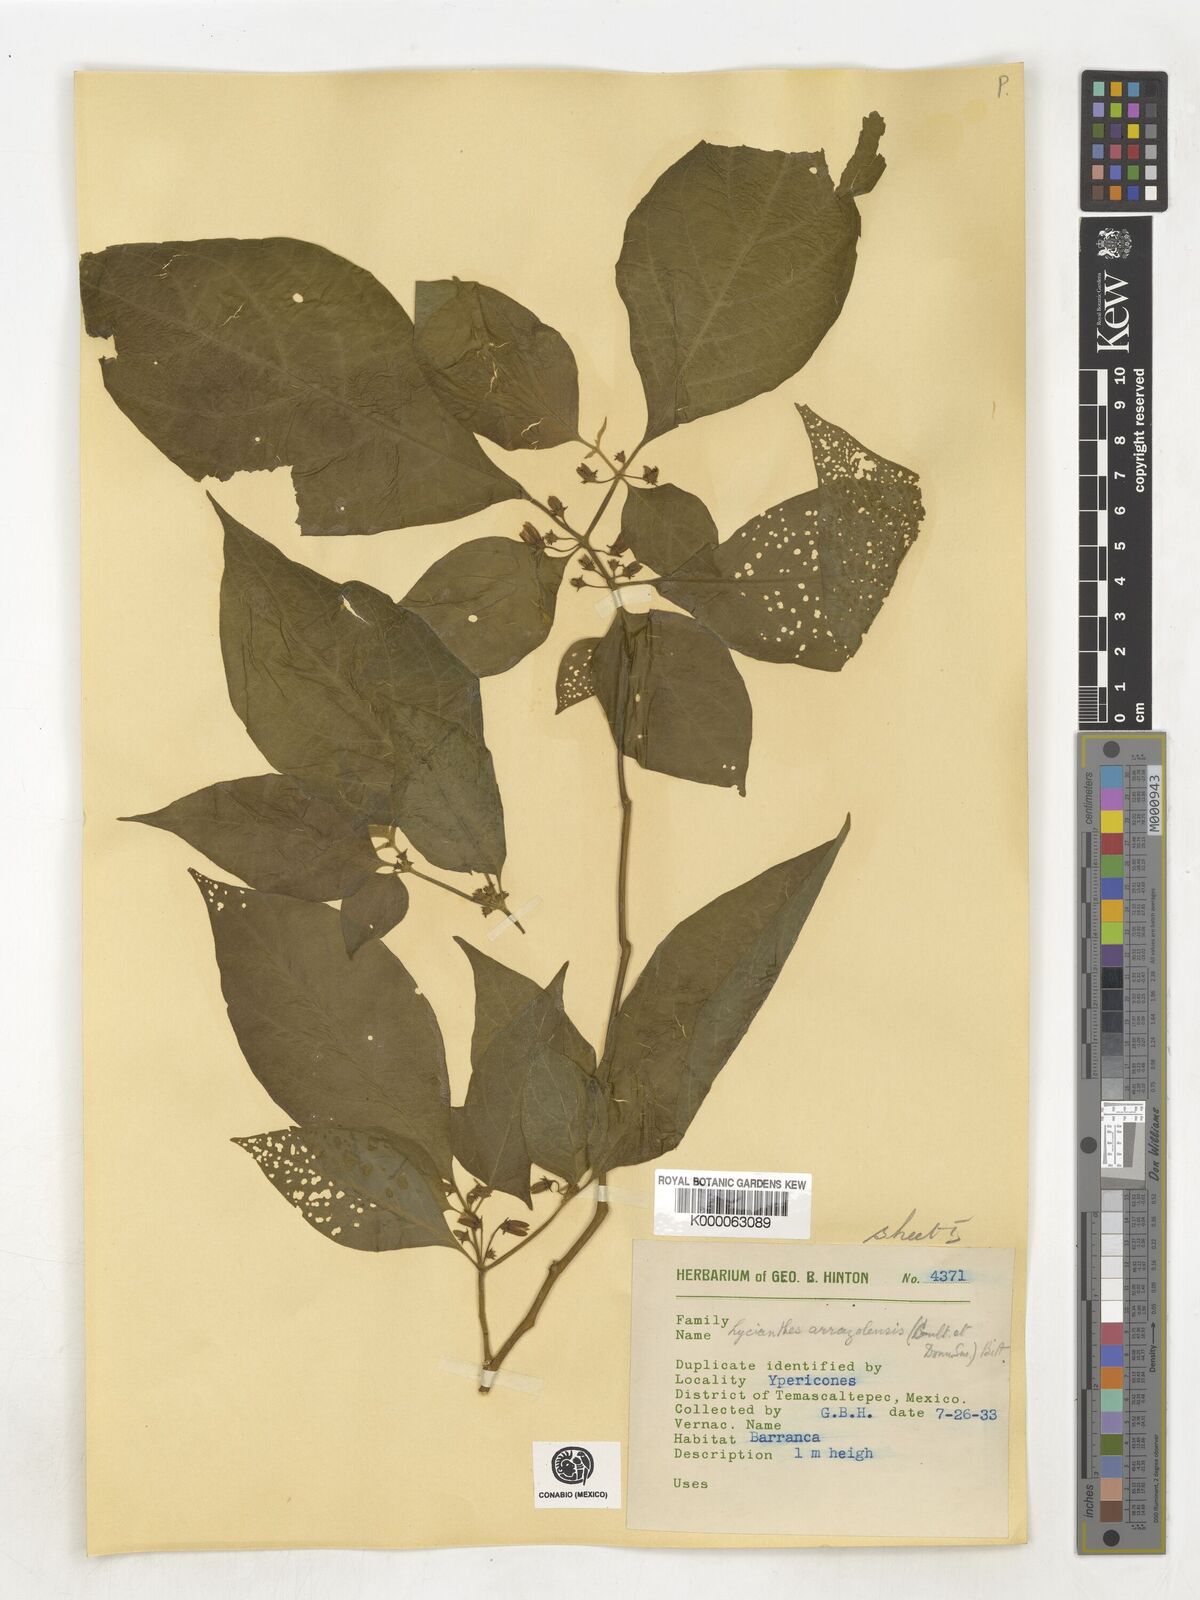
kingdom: Plantae
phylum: Tracheophyta
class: Magnoliopsida
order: Solanales
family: Solanaceae
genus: Lycianthes
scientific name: Lycianthes
